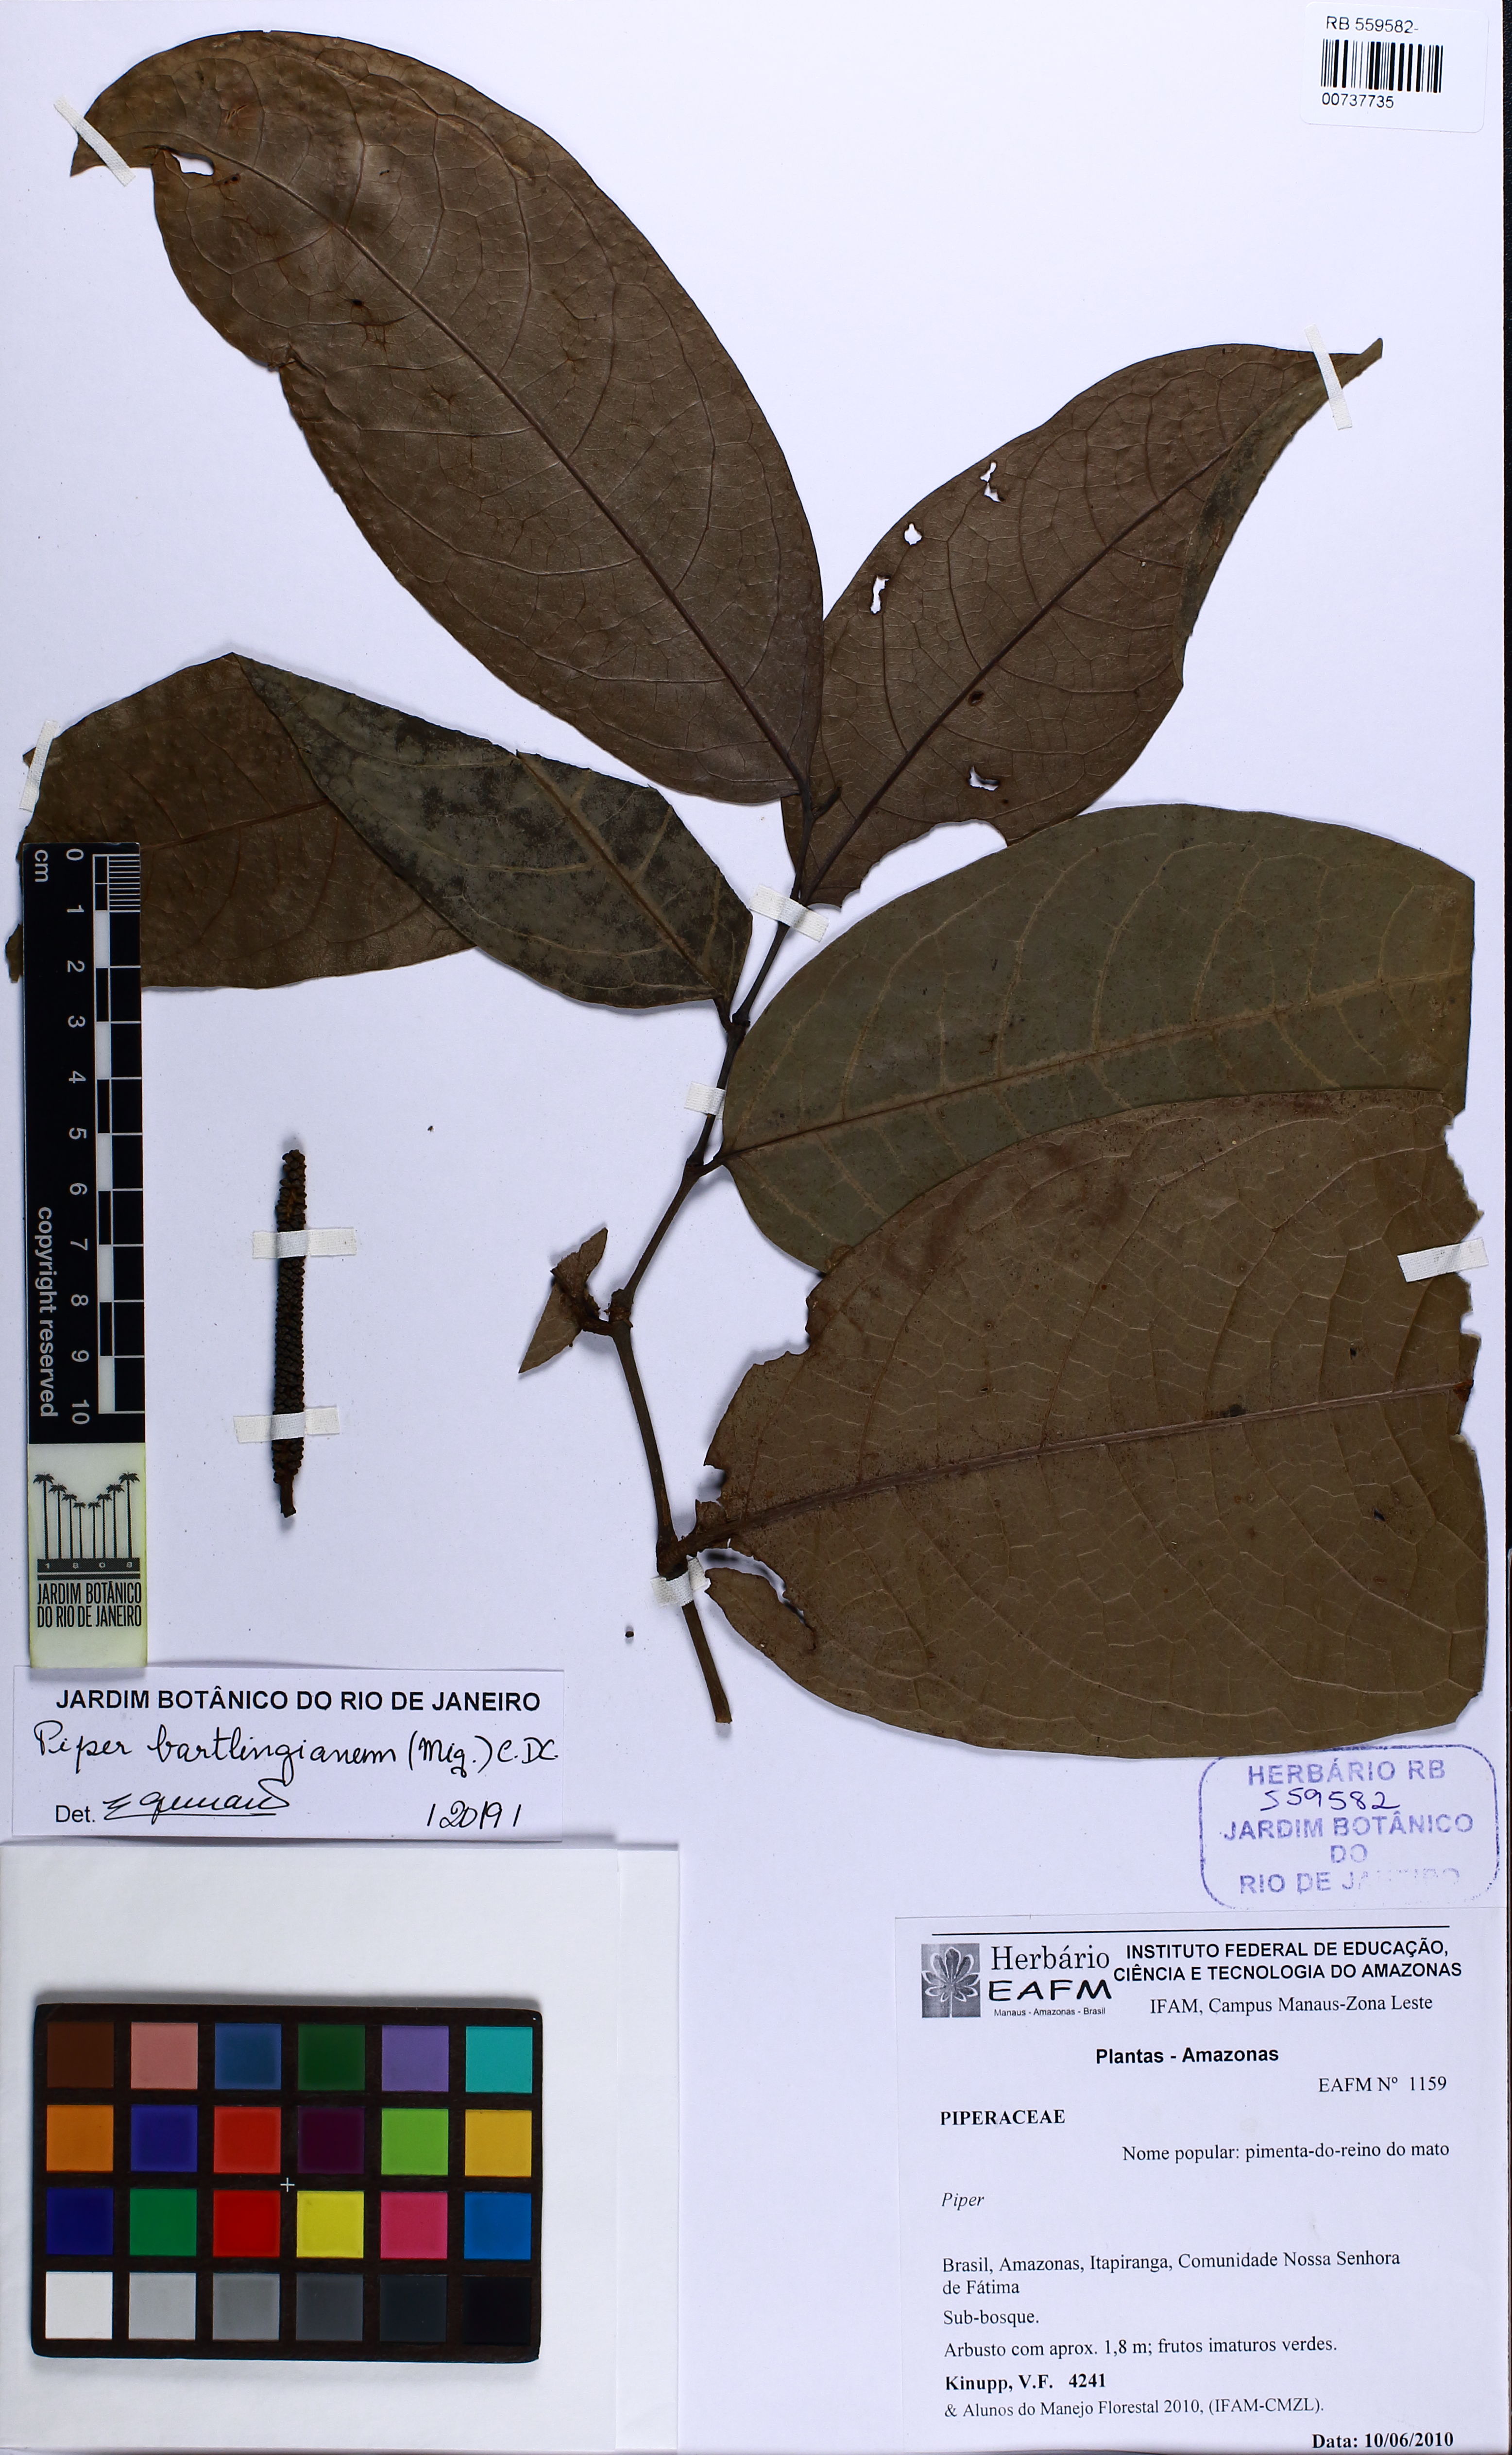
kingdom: Plantae
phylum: Tracheophyta
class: Magnoliopsida
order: Piperales
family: Piperaceae
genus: Piper
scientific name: Piper bartlingianum
